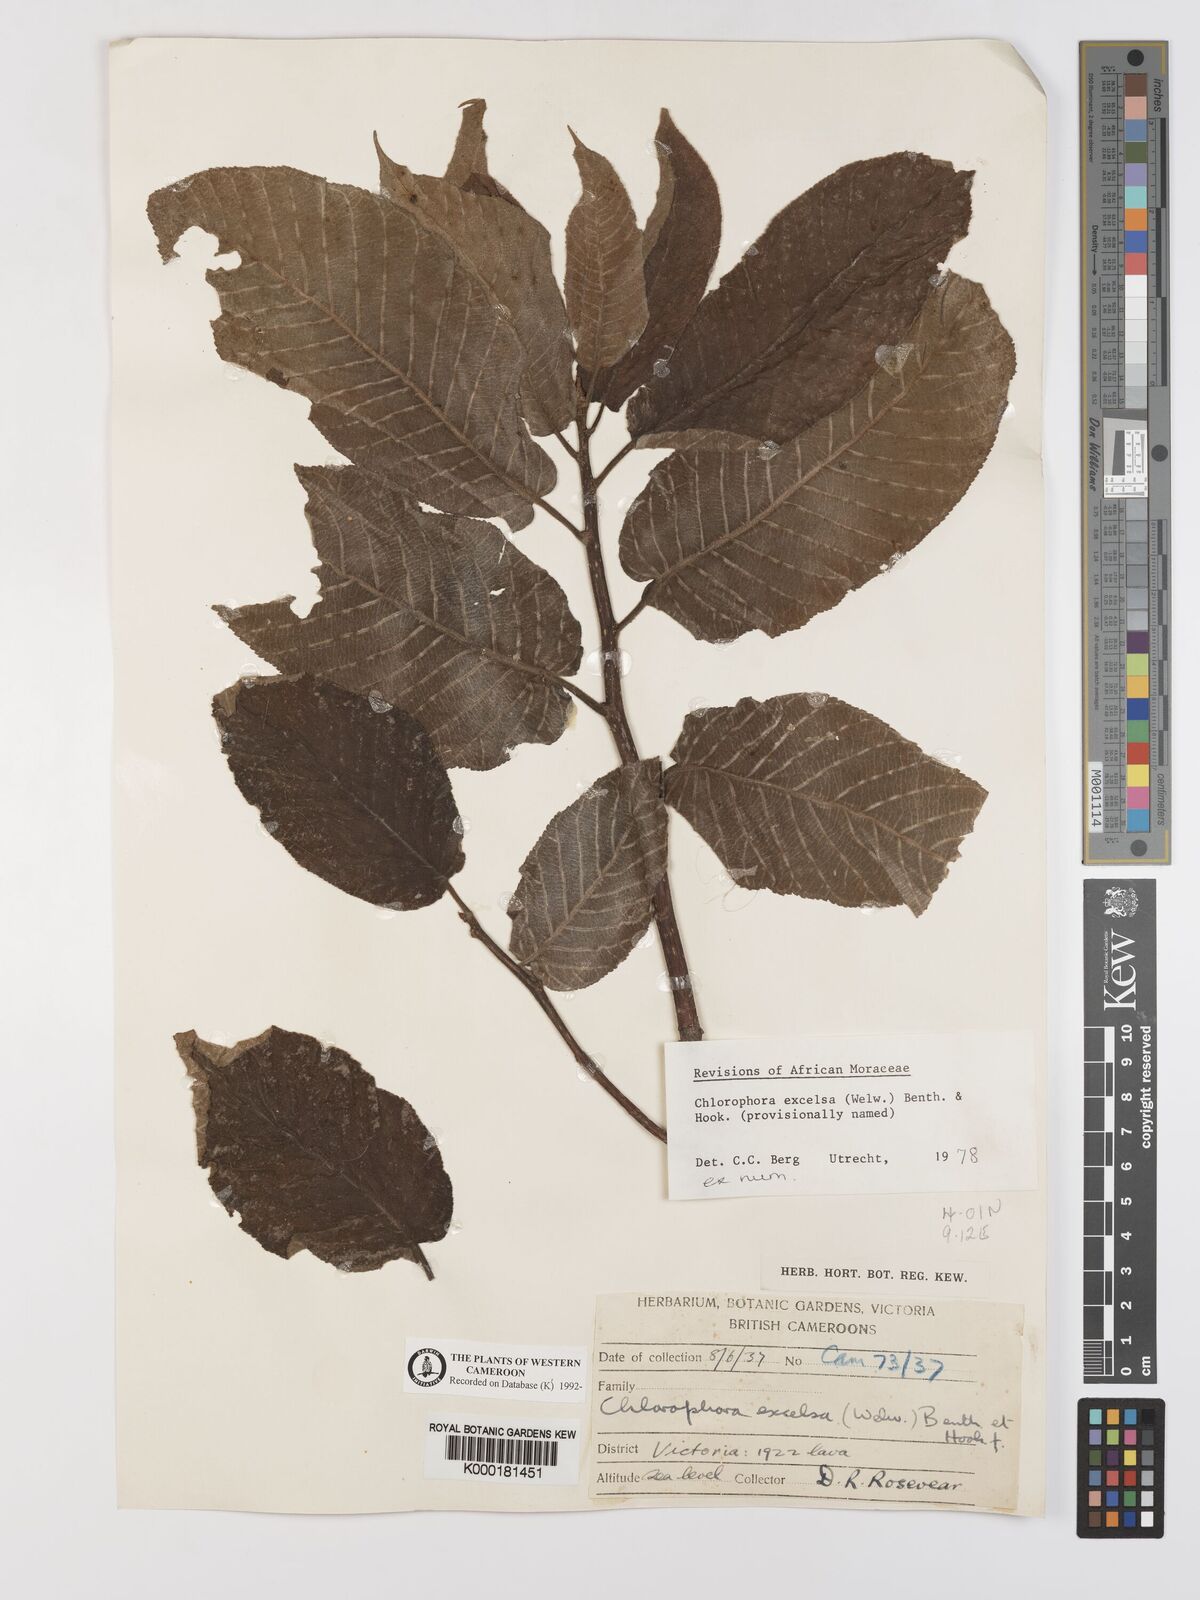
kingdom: Plantae
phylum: Tracheophyta
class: Magnoliopsida
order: Rosales
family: Moraceae
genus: Milicia
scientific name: Milicia excelsa
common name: African teak
